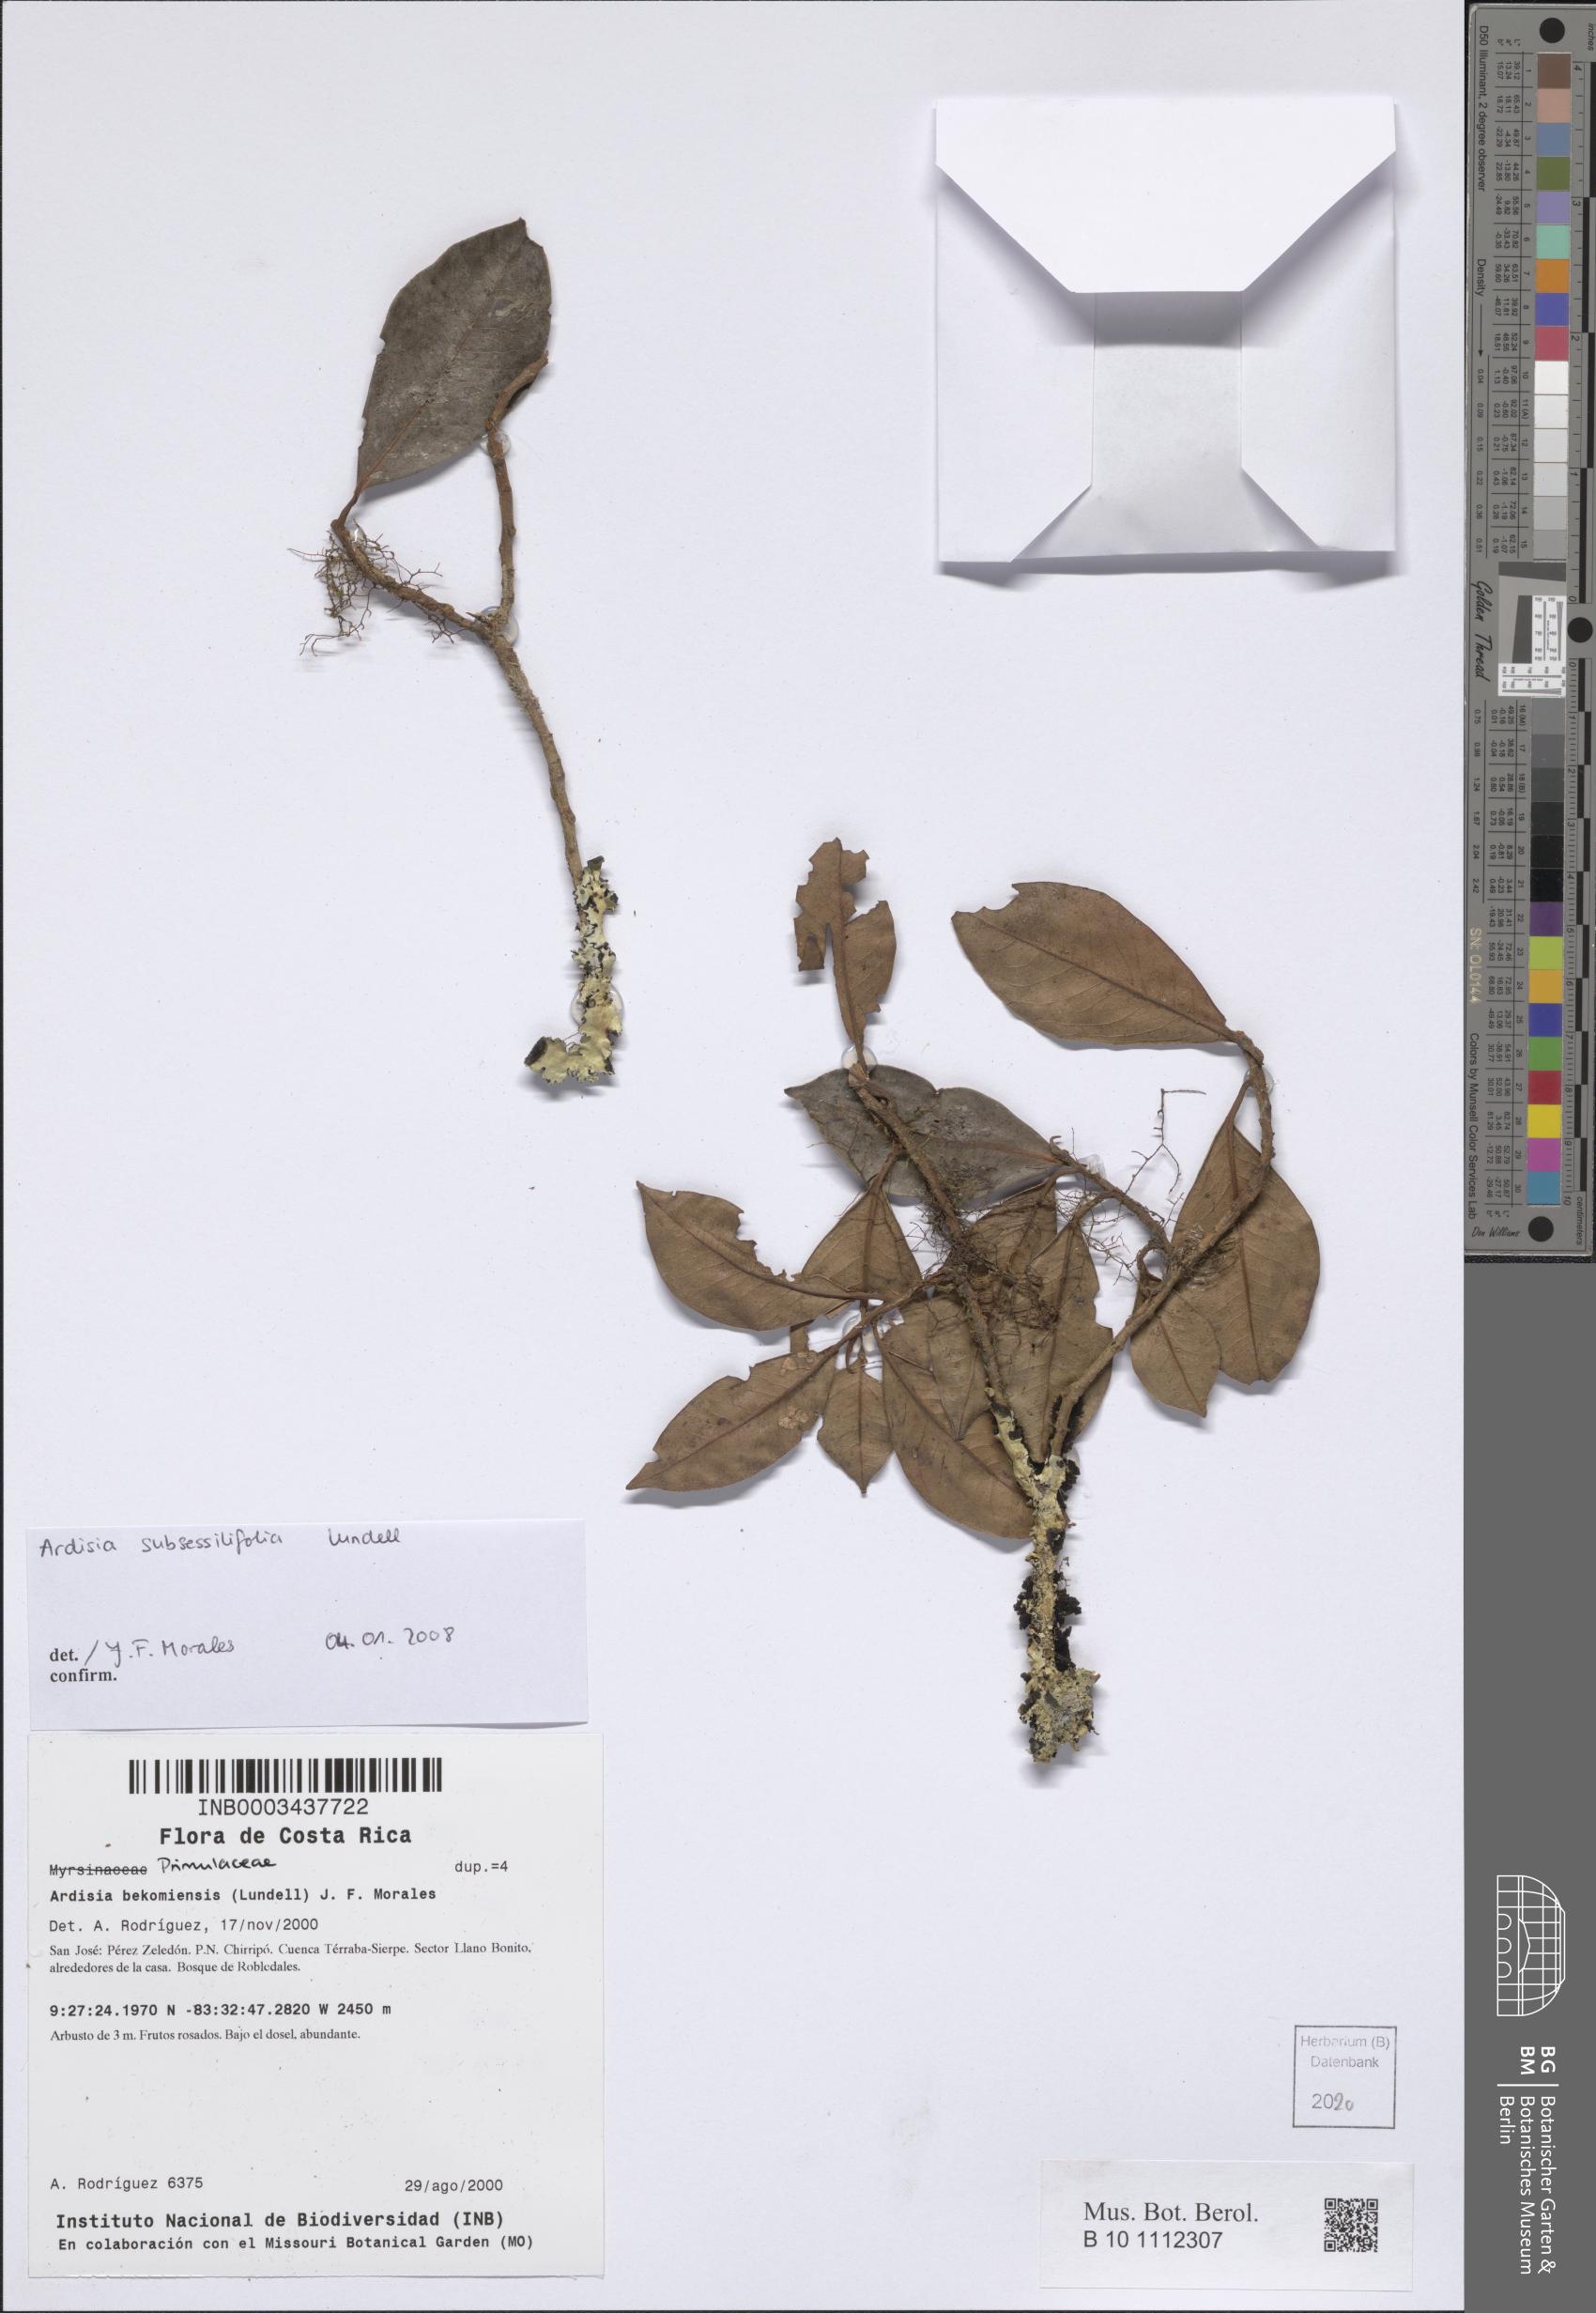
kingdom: Plantae
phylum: Tracheophyta
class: Magnoliopsida
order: Ericales
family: Primulaceae
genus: Ardisia
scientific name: Ardisia subsessilifolia
